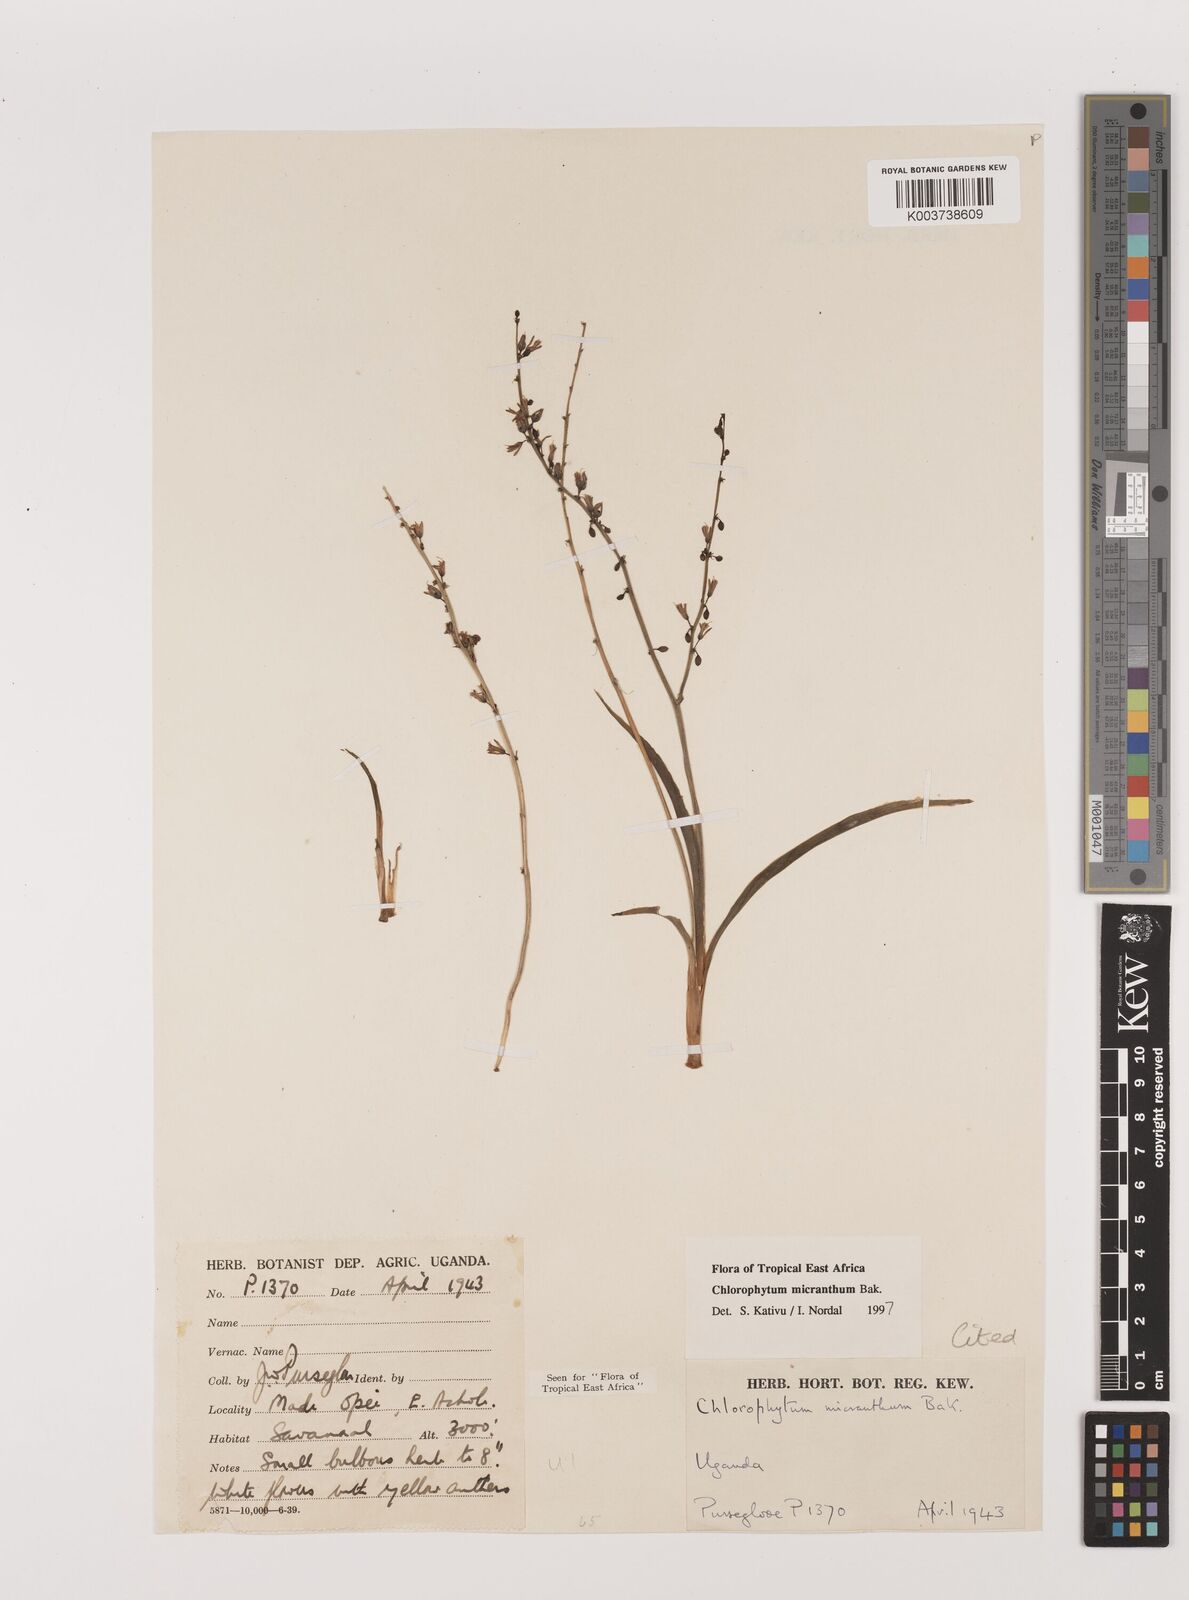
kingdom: Plantae
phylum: Tracheophyta
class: Liliopsida
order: Asparagales
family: Asparagaceae
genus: Chlorophytum
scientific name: Chlorophytum gallabatense
